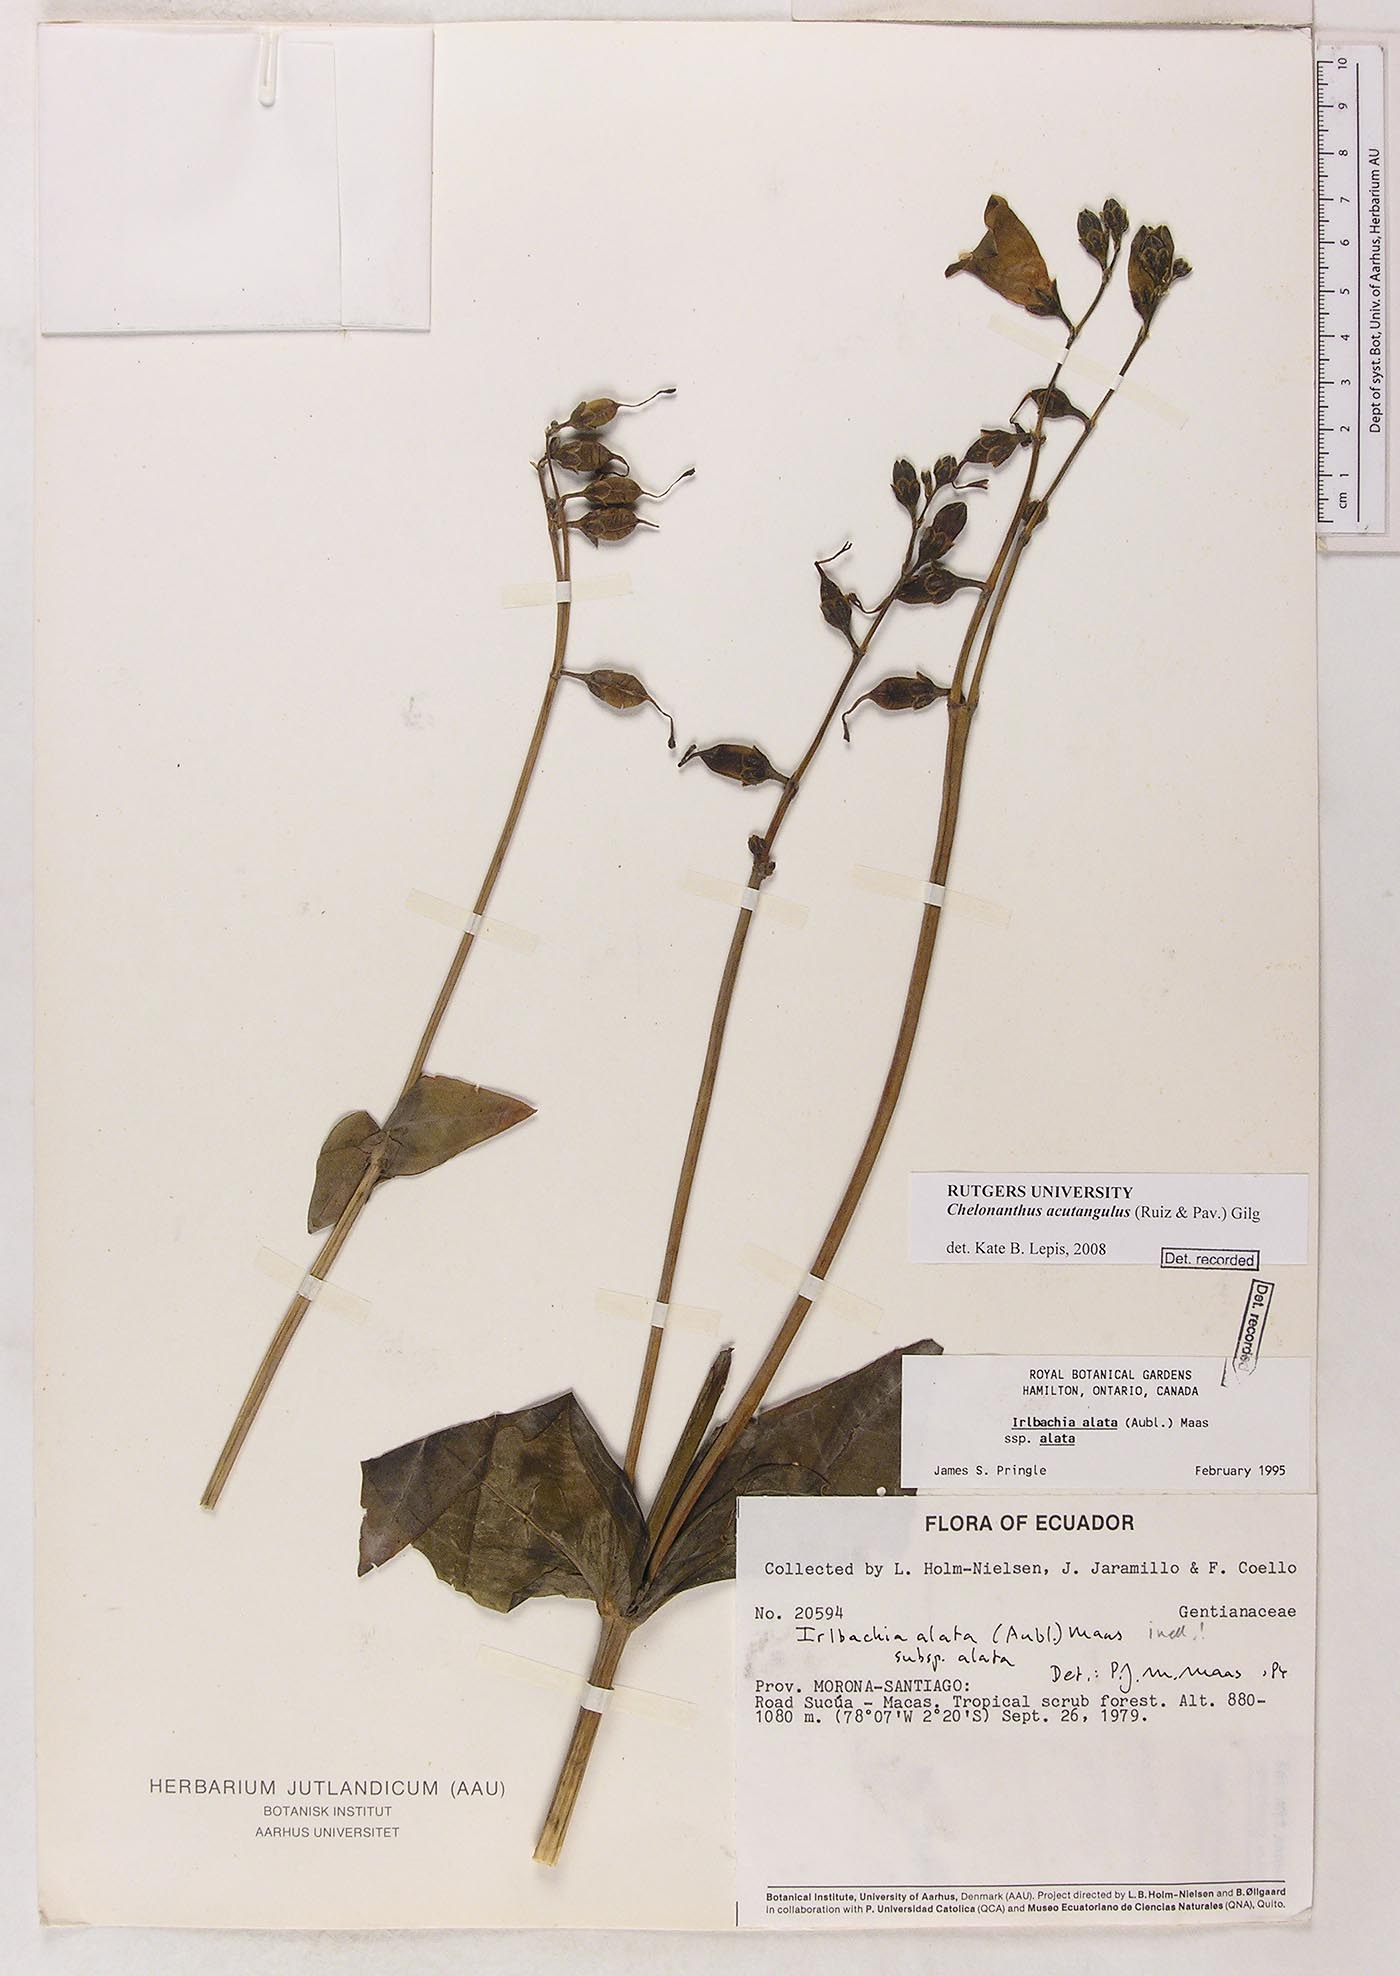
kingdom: Plantae
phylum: Tracheophyta
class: Magnoliopsida
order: Gentianales
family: Gentianaceae
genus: Chelonanthus
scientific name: Chelonanthus alatus
